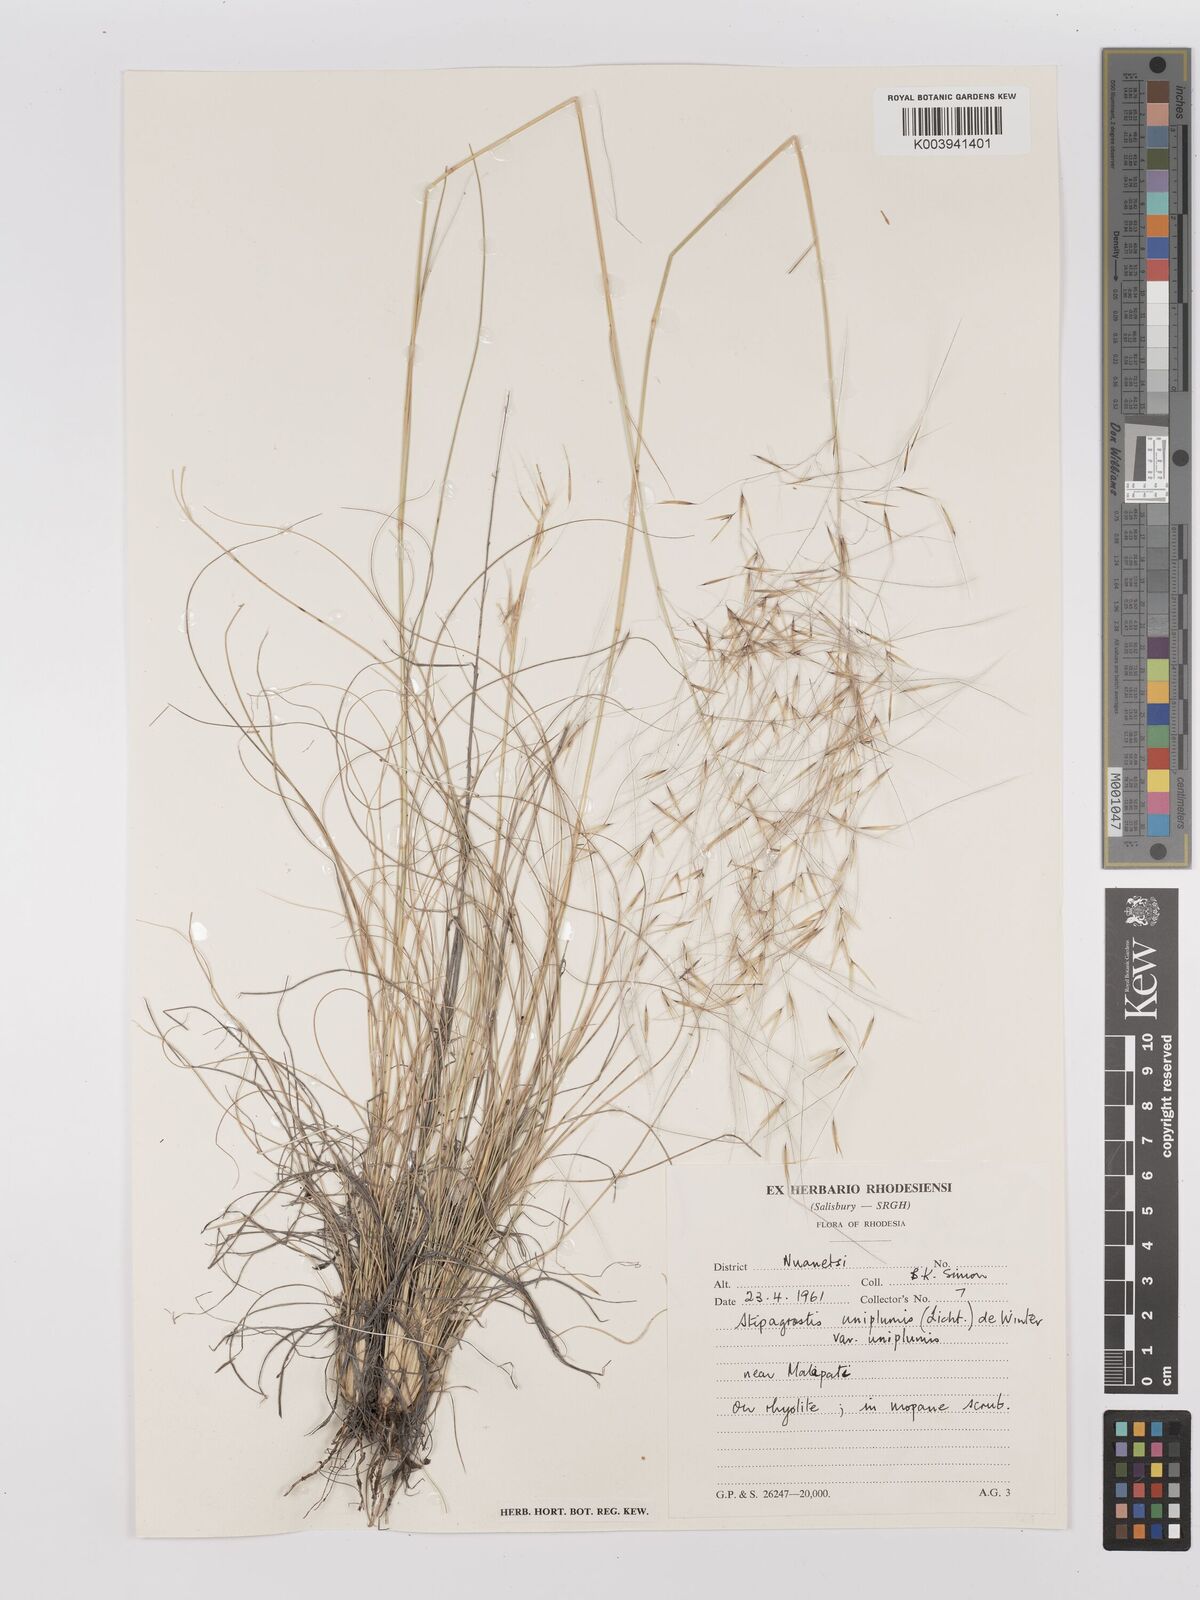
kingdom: Plantae
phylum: Tracheophyta
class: Liliopsida
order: Poales
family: Poaceae
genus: Stipagrostis
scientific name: Stipagrostis uniplumis
